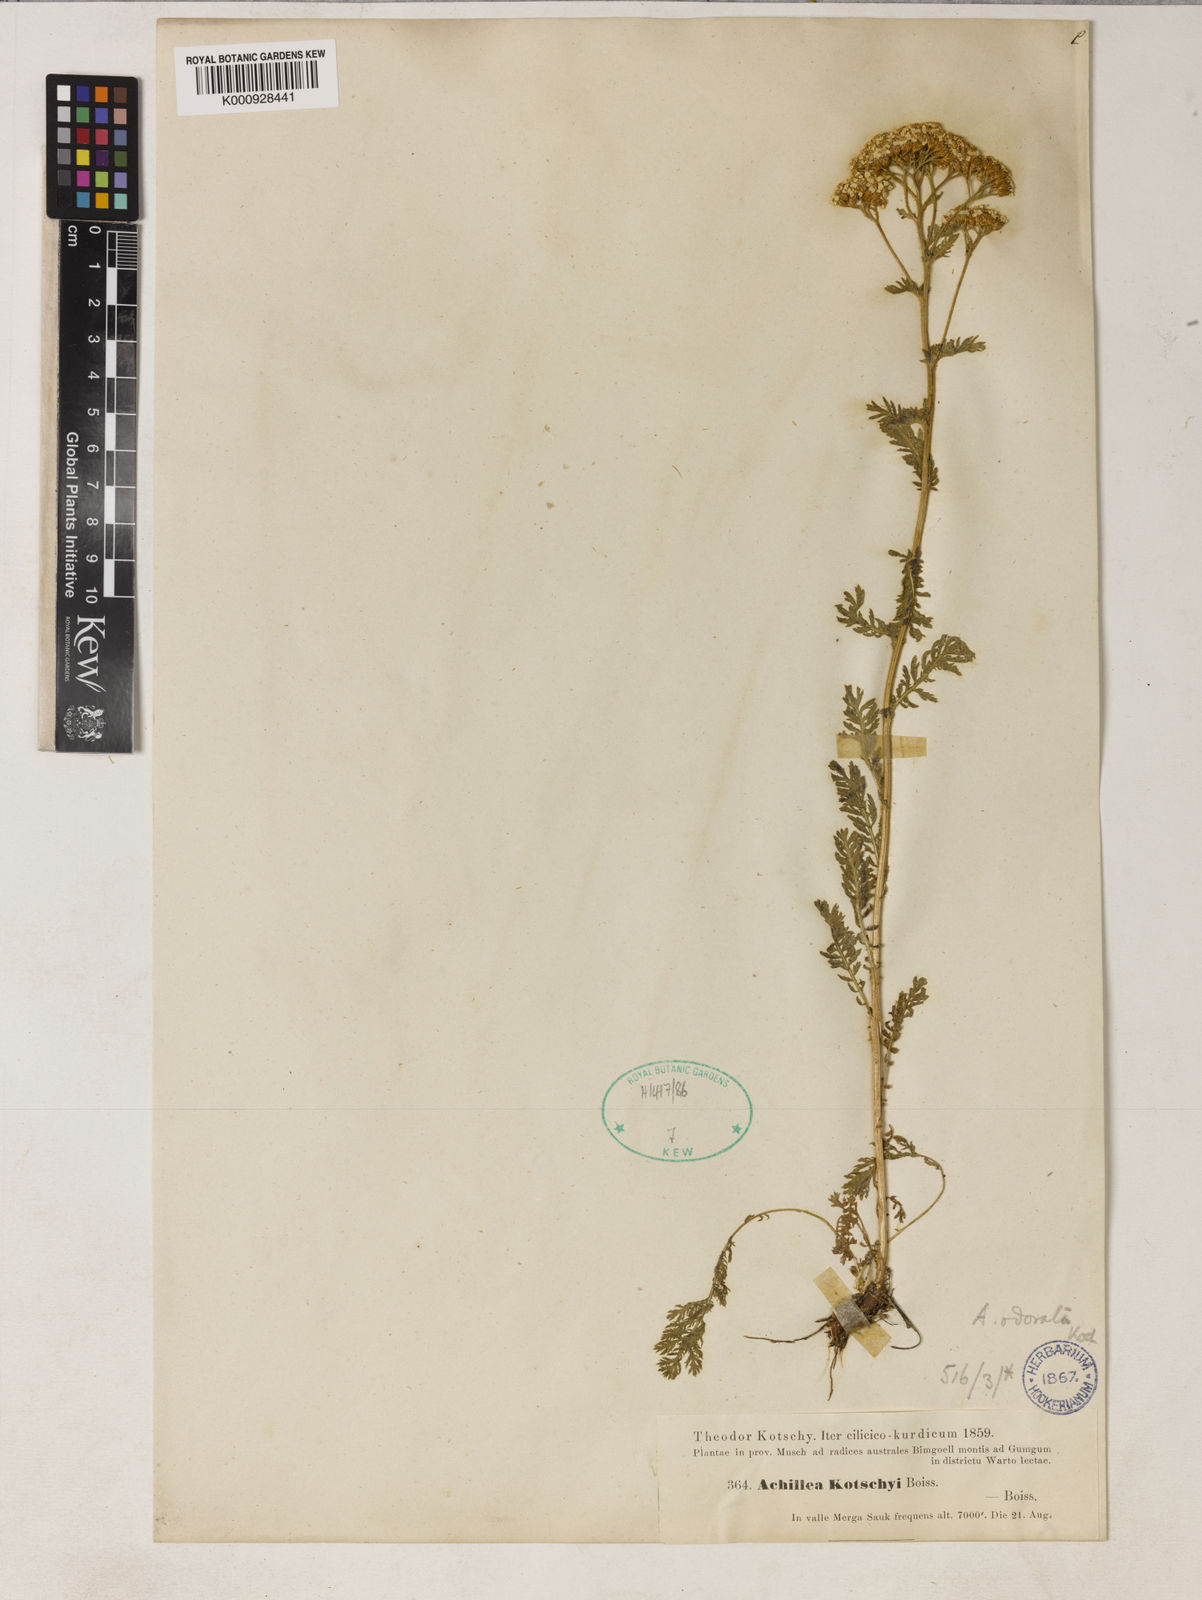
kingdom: Plantae
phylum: Tracheophyta
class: Magnoliopsida
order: Asterales
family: Asteraceae
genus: Achillea
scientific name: Achillea kotschyi
